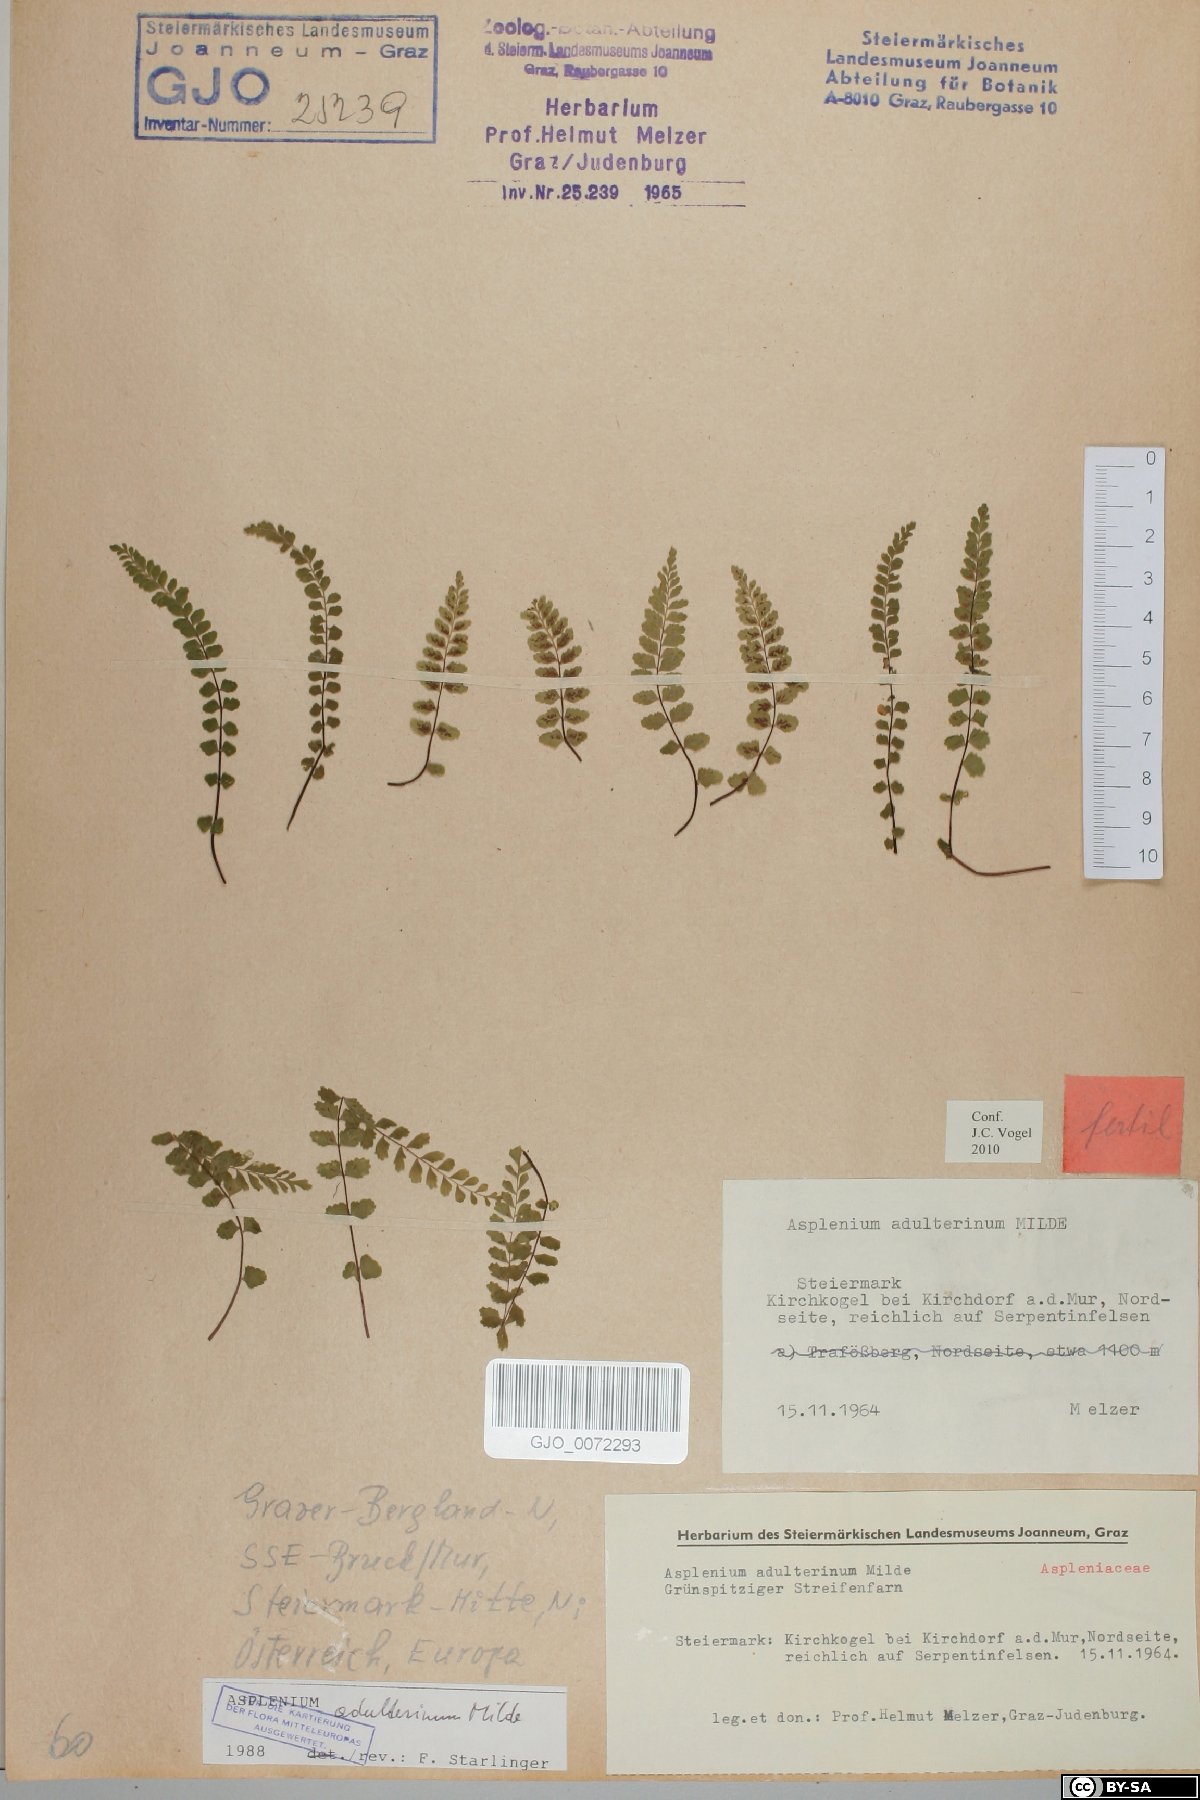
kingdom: Plantae
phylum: Tracheophyta
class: Polypodiopsida
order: Polypodiales
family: Aspleniaceae
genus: Asplenium
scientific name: Asplenium adulterinum
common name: Adulterated spleenwort
